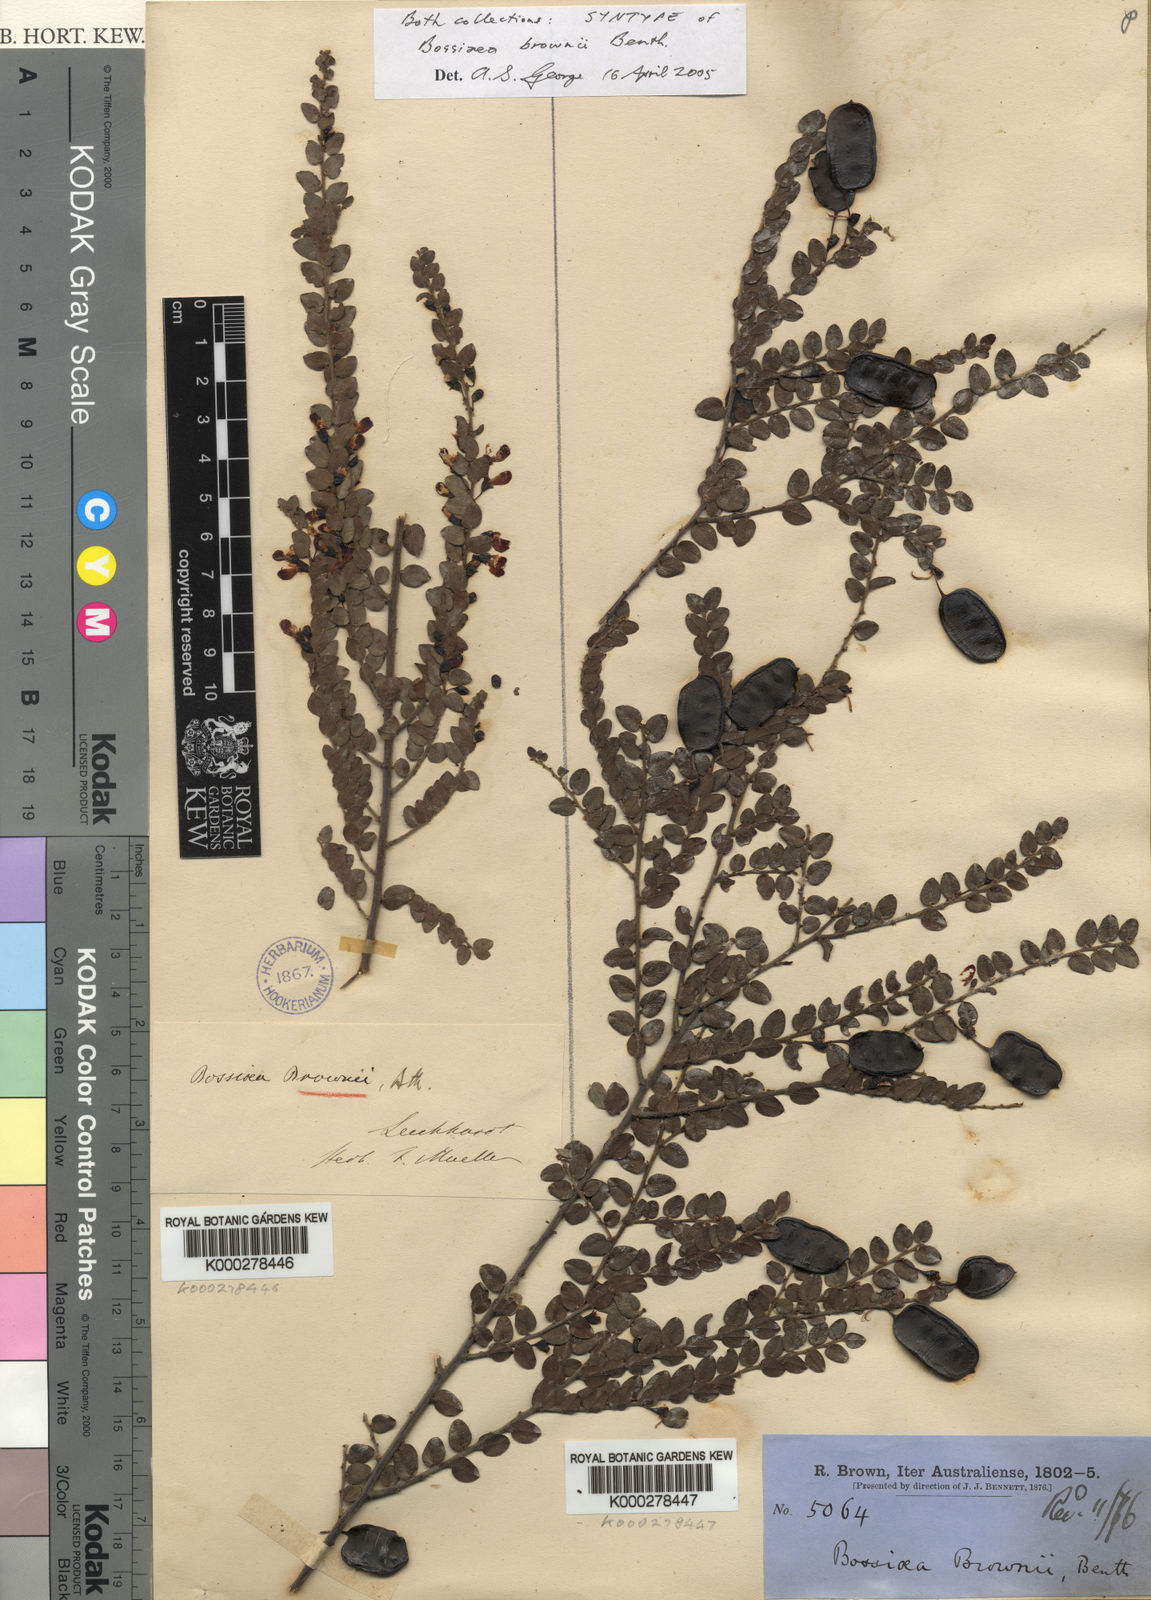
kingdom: Plantae
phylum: Tracheophyta
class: Magnoliopsida
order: Fabales
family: Fabaceae
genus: Bossiaea
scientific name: Bossiaea brownii
